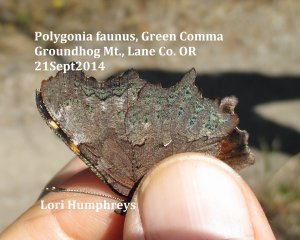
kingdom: Animalia
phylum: Arthropoda
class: Insecta
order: Lepidoptera
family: Nymphalidae
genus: Polygonia
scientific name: Polygonia faunus
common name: Green Comma
